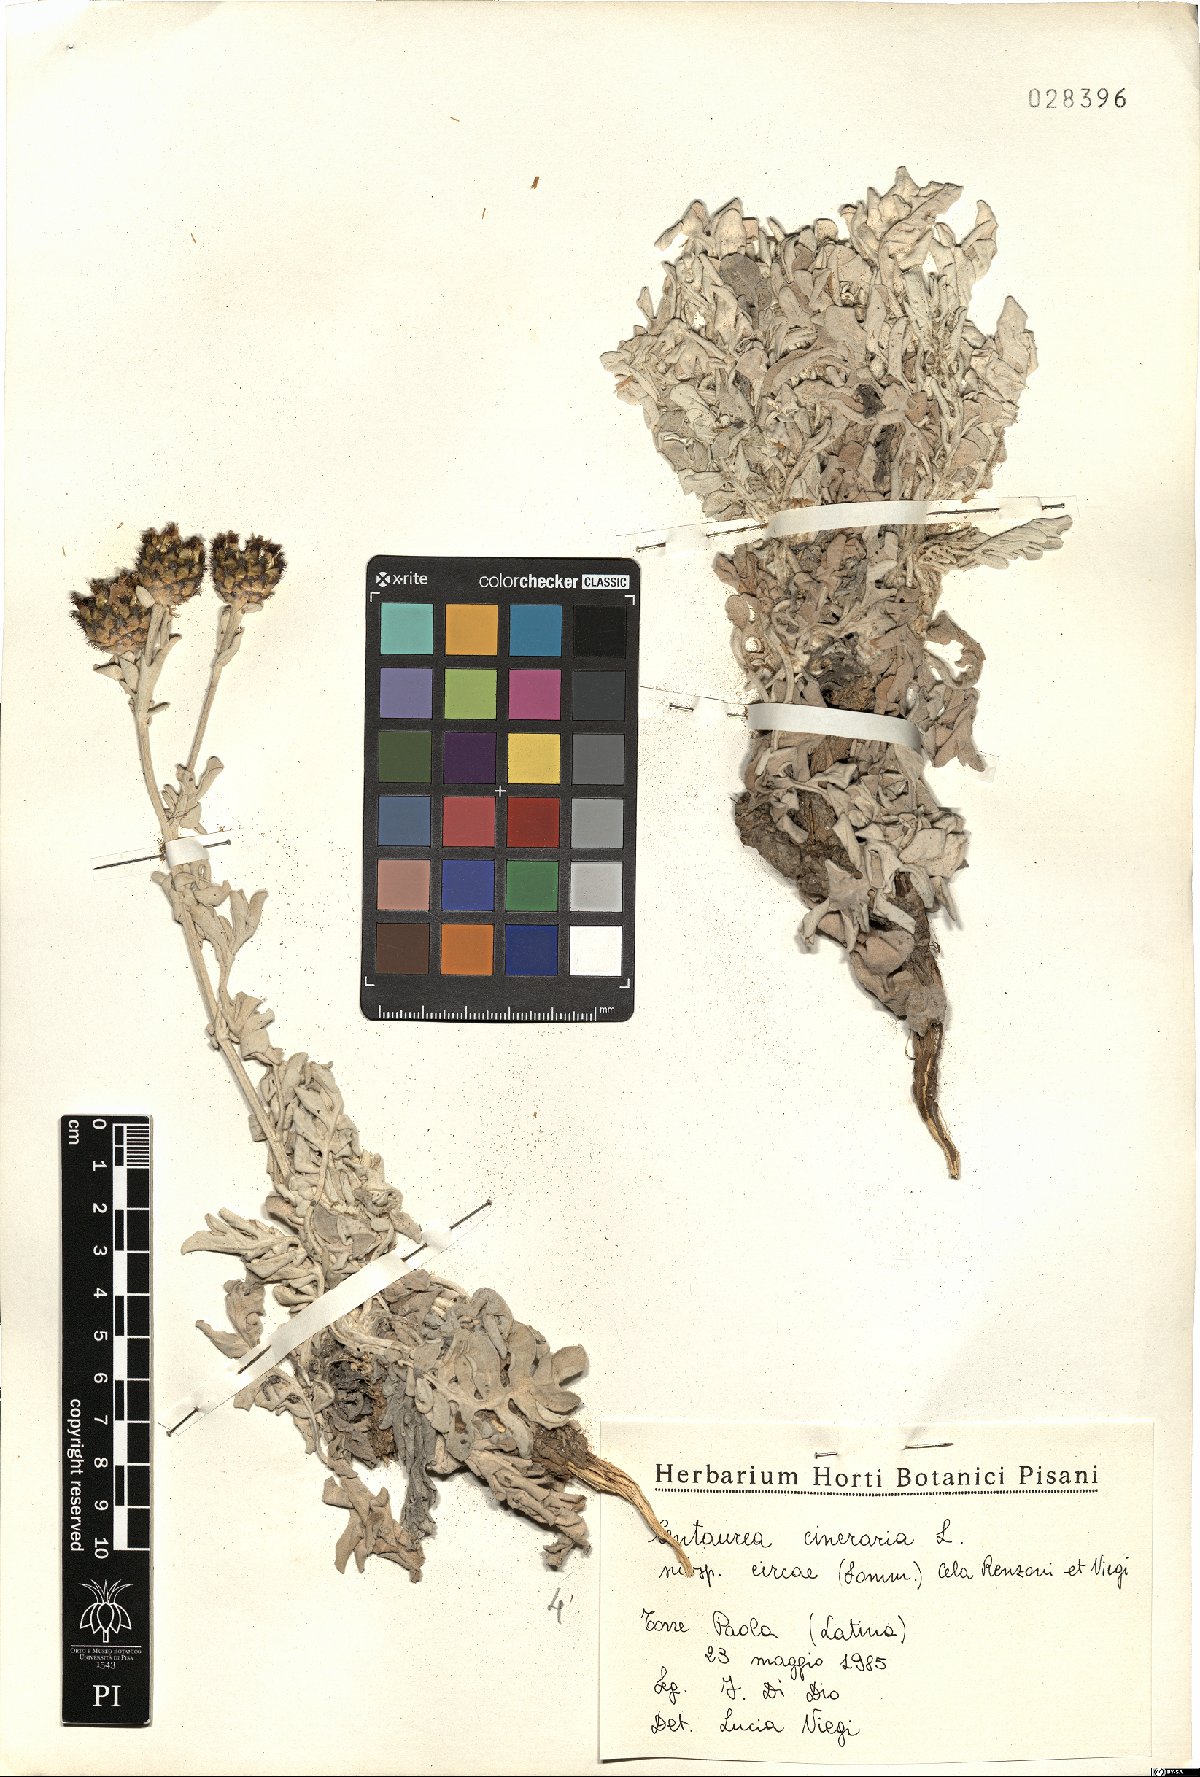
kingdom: Plantae
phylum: Tracheophyta
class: Magnoliopsida
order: Asterales
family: Asteraceae
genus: Centaurea
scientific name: Centaurea cineraria
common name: Dusty miller
